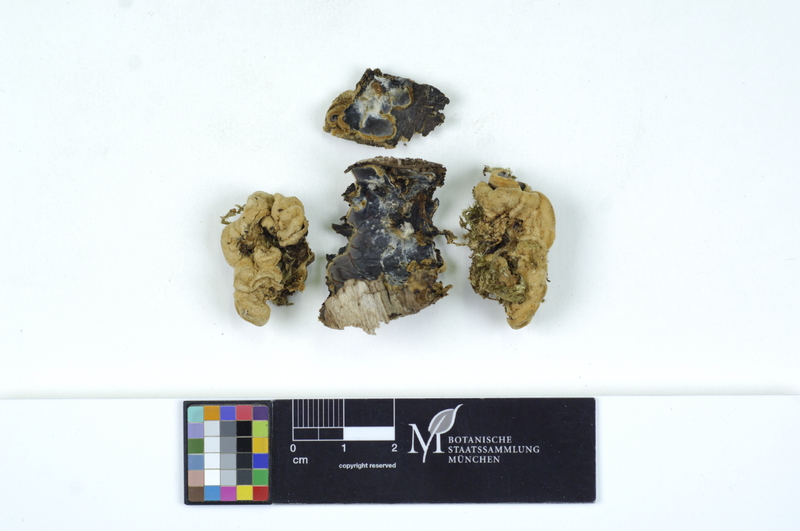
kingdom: Plantae
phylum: Tracheophyta
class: Magnoliopsida
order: Rosales
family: Ulmaceae
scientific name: Ulmaceae
